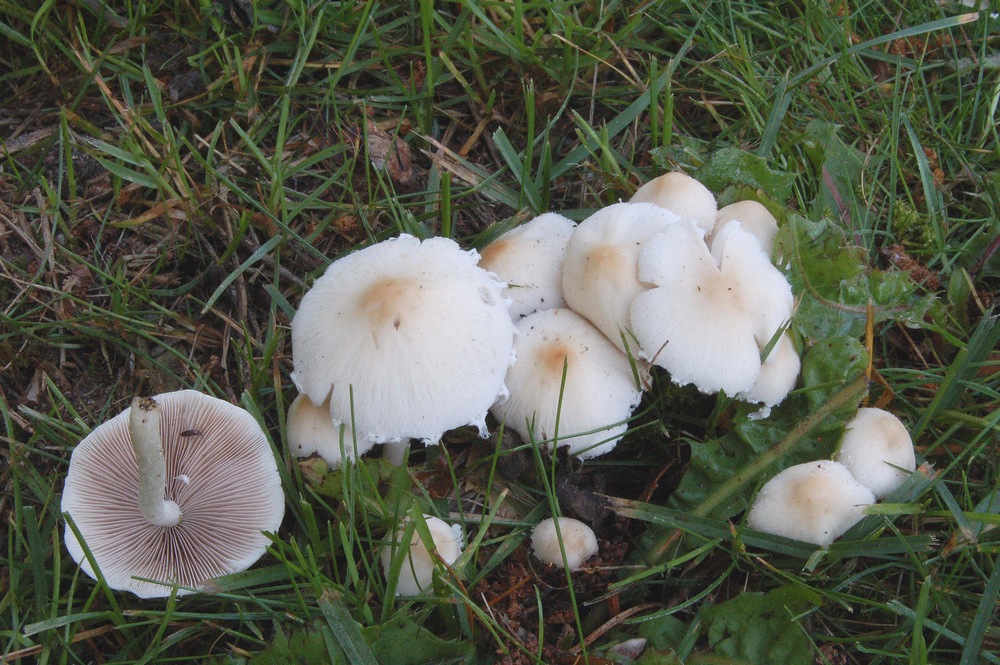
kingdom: Fungi
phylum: Basidiomycota
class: Agaricomycetes
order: Agaricales
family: Psathyrellaceae
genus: Candolleomyces
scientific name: Candolleomyces candolleanus
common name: Candolles mørkhat
